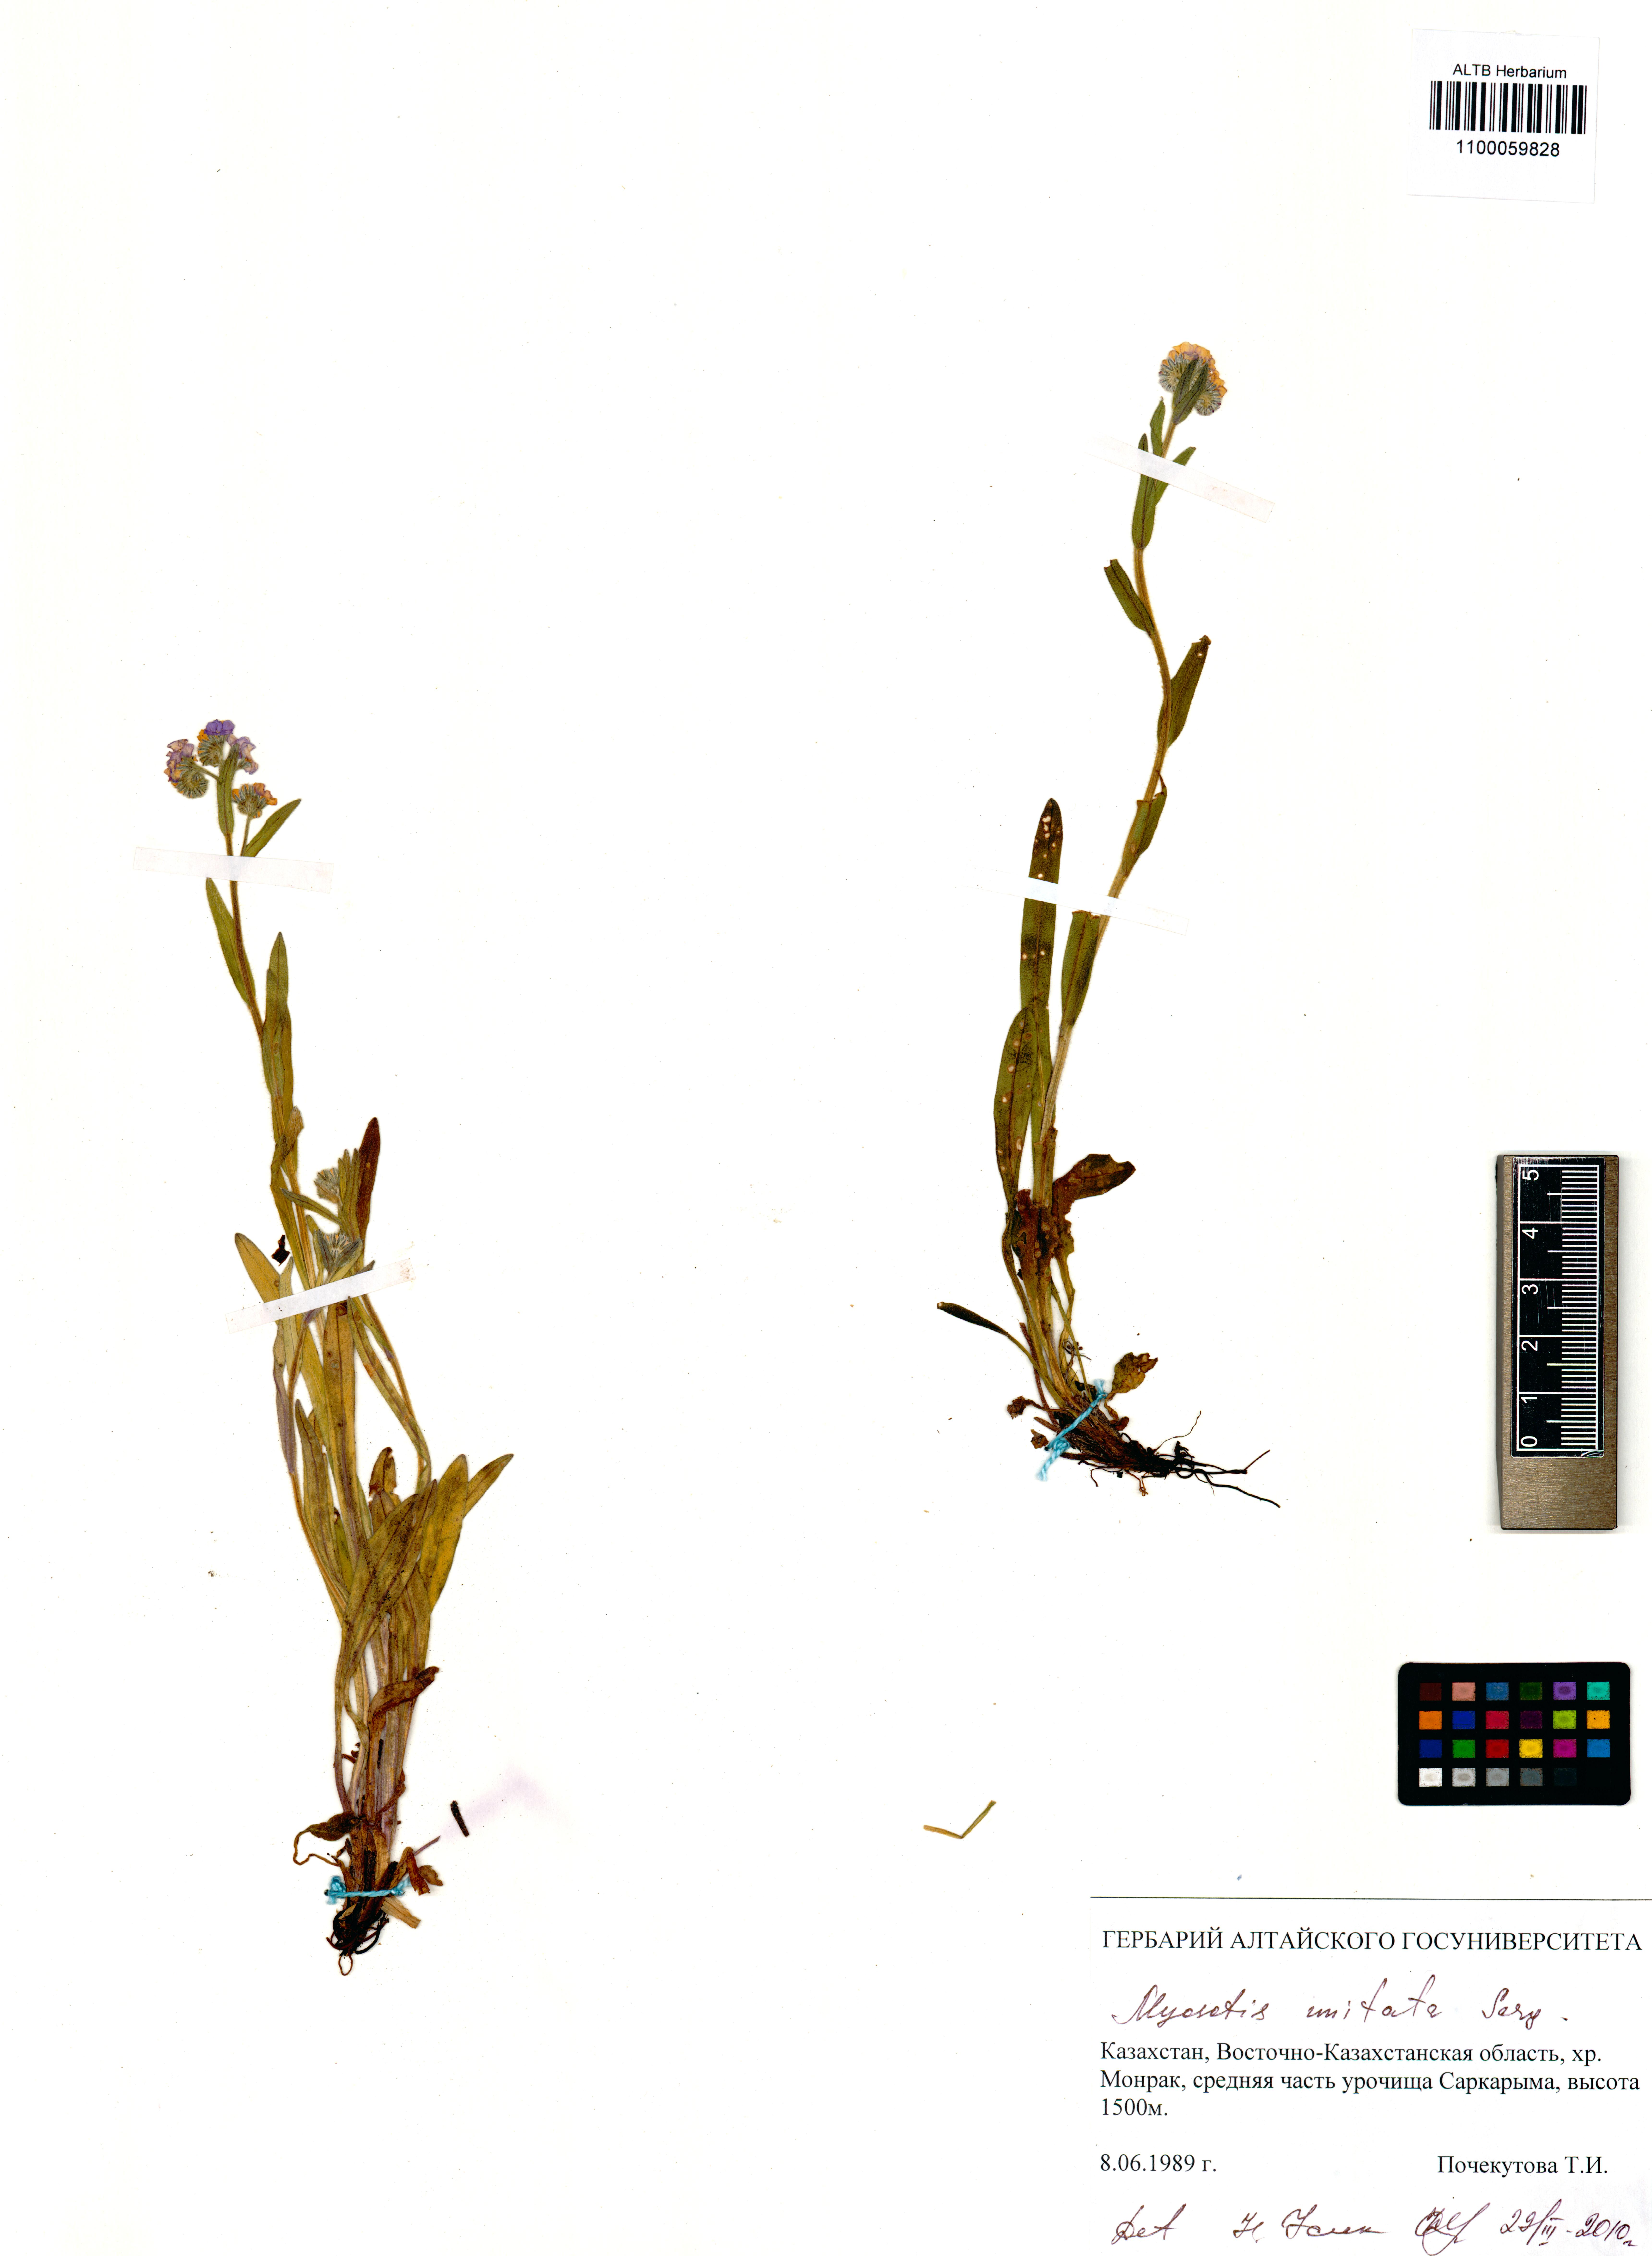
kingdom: Plantae
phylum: Tracheophyta
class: Magnoliopsida
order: Boraginales
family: Boraginaceae
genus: Myosotis
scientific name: Myosotis imitata
